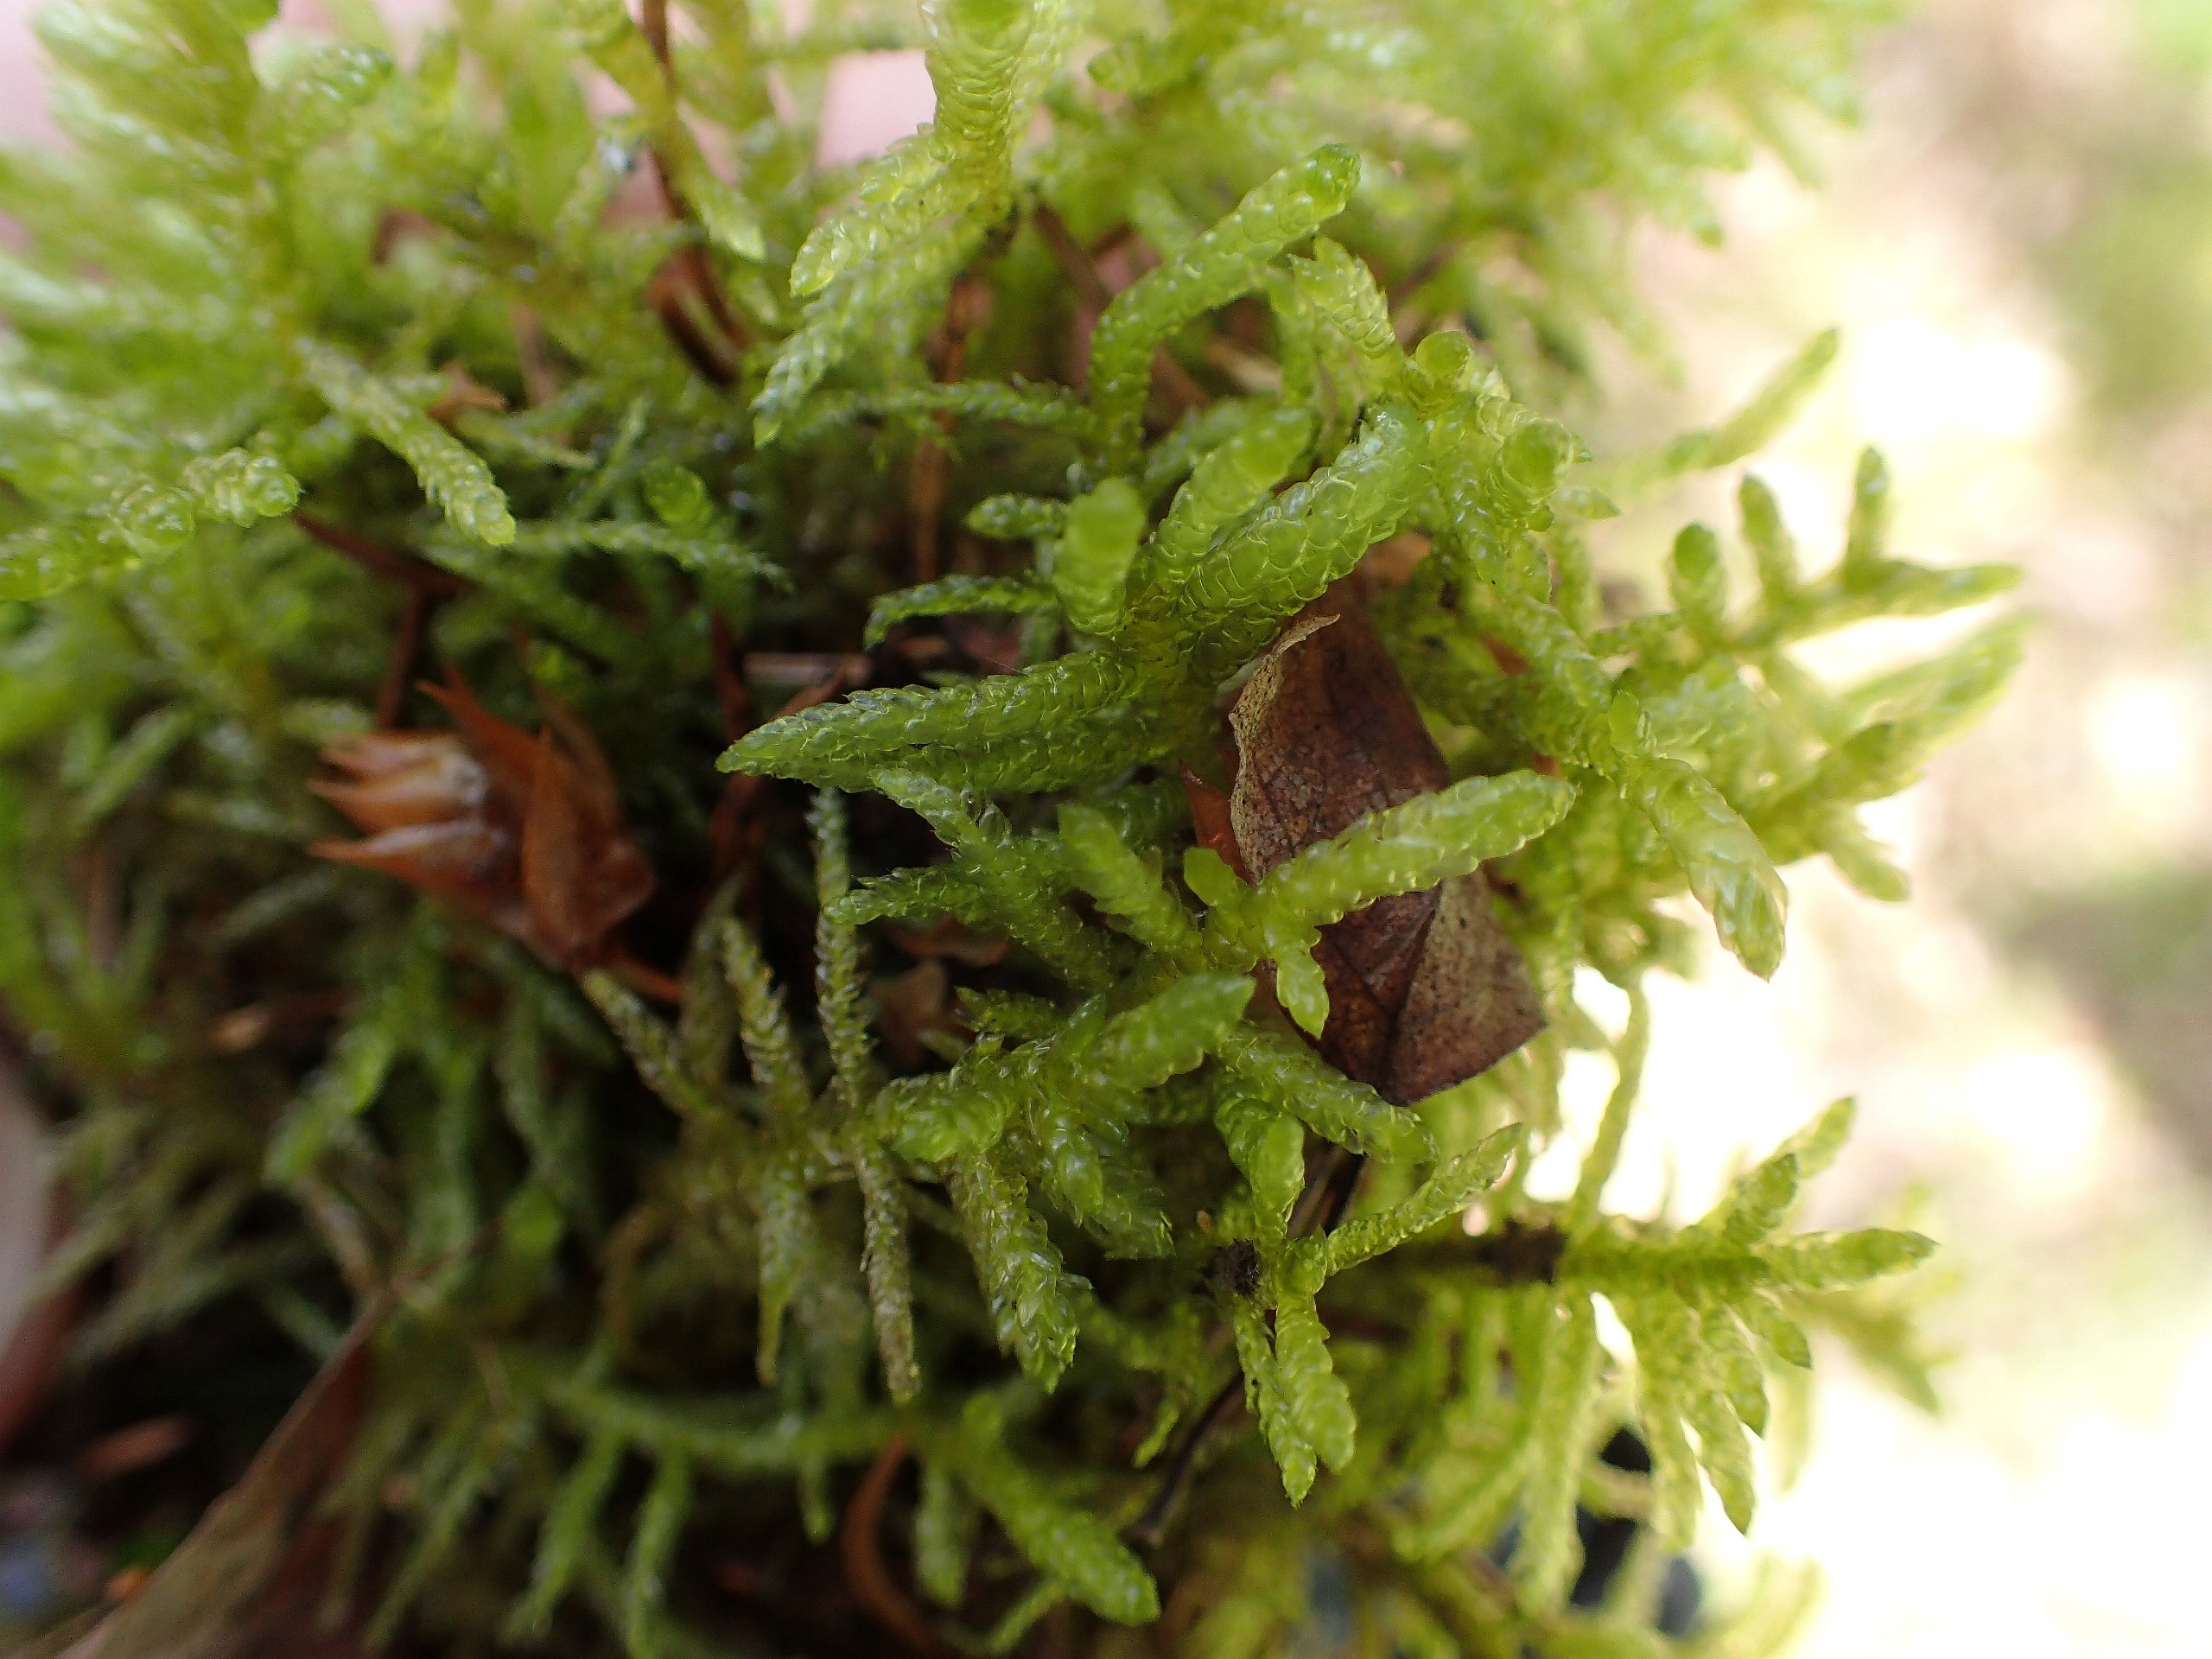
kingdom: Plantae
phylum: Bryophyta
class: Bryopsida
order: Hypnales
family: Brachytheciaceae
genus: Pseudoscleropodium
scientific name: Pseudoscleropodium purum
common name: Hulbladet fedtmos
